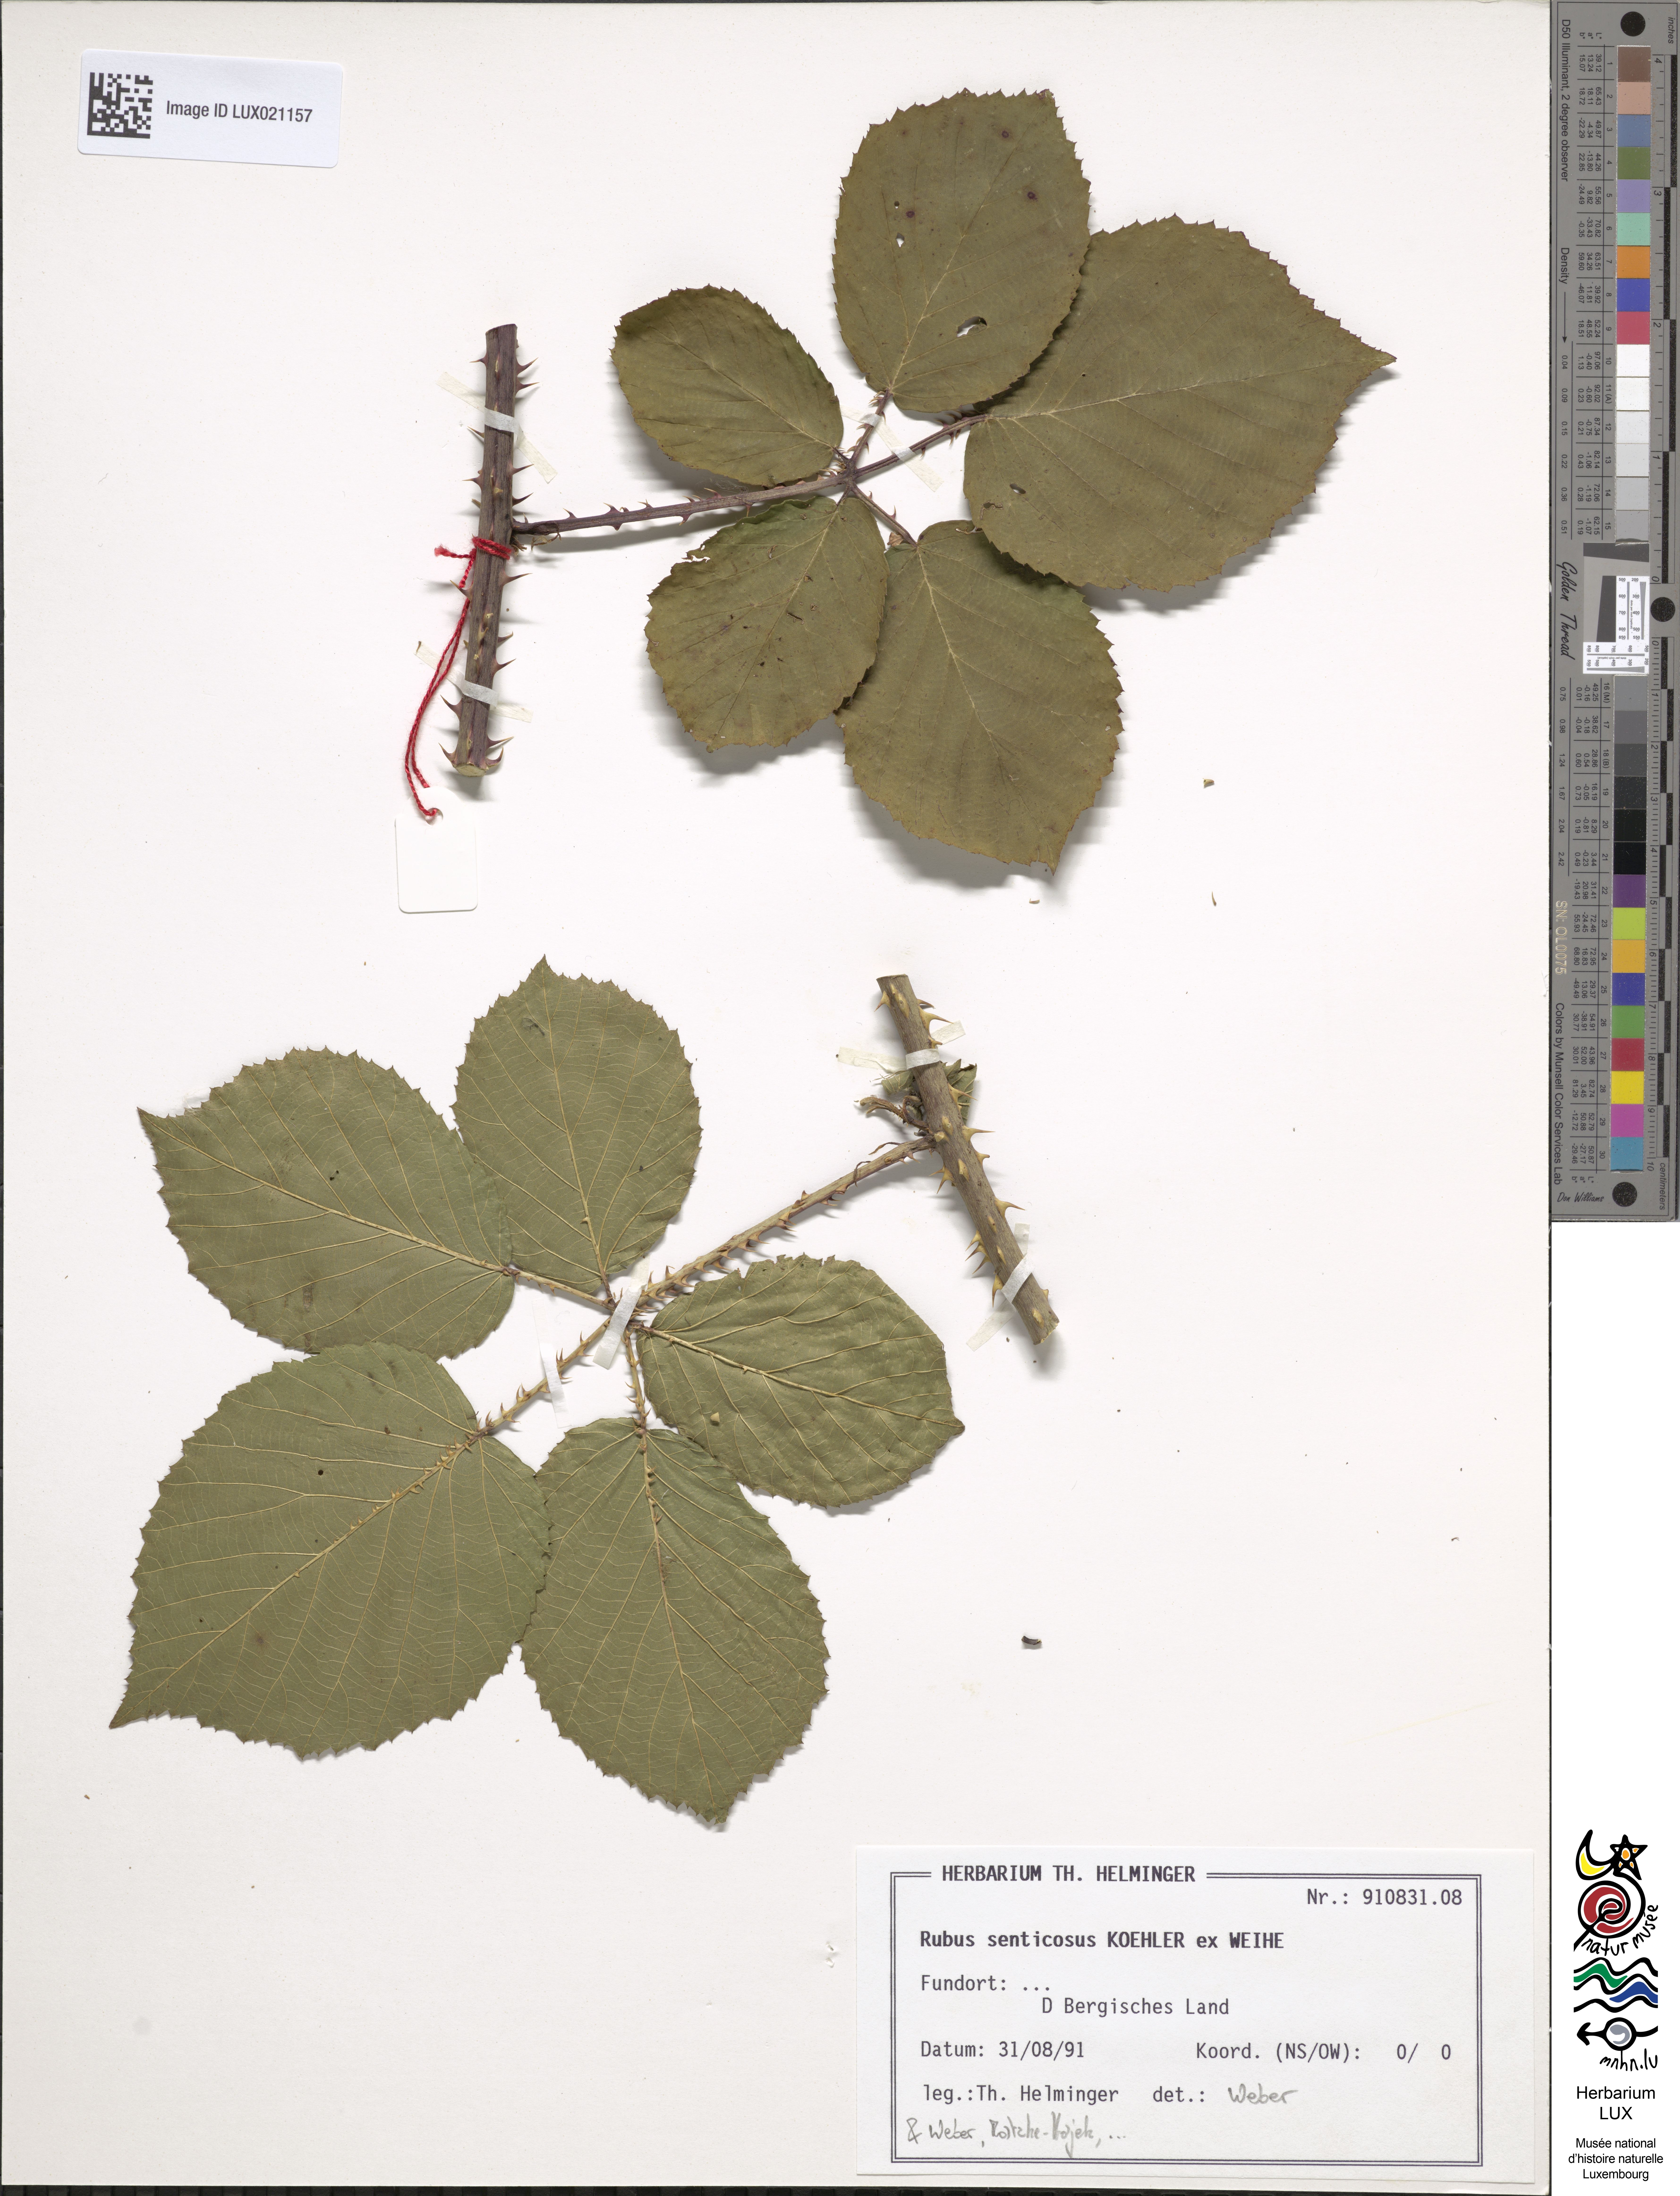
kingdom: Plantae
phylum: Tracheophyta
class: Magnoliopsida
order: Rosales
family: Rosaceae
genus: Rubus
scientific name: Rubus senticosus
